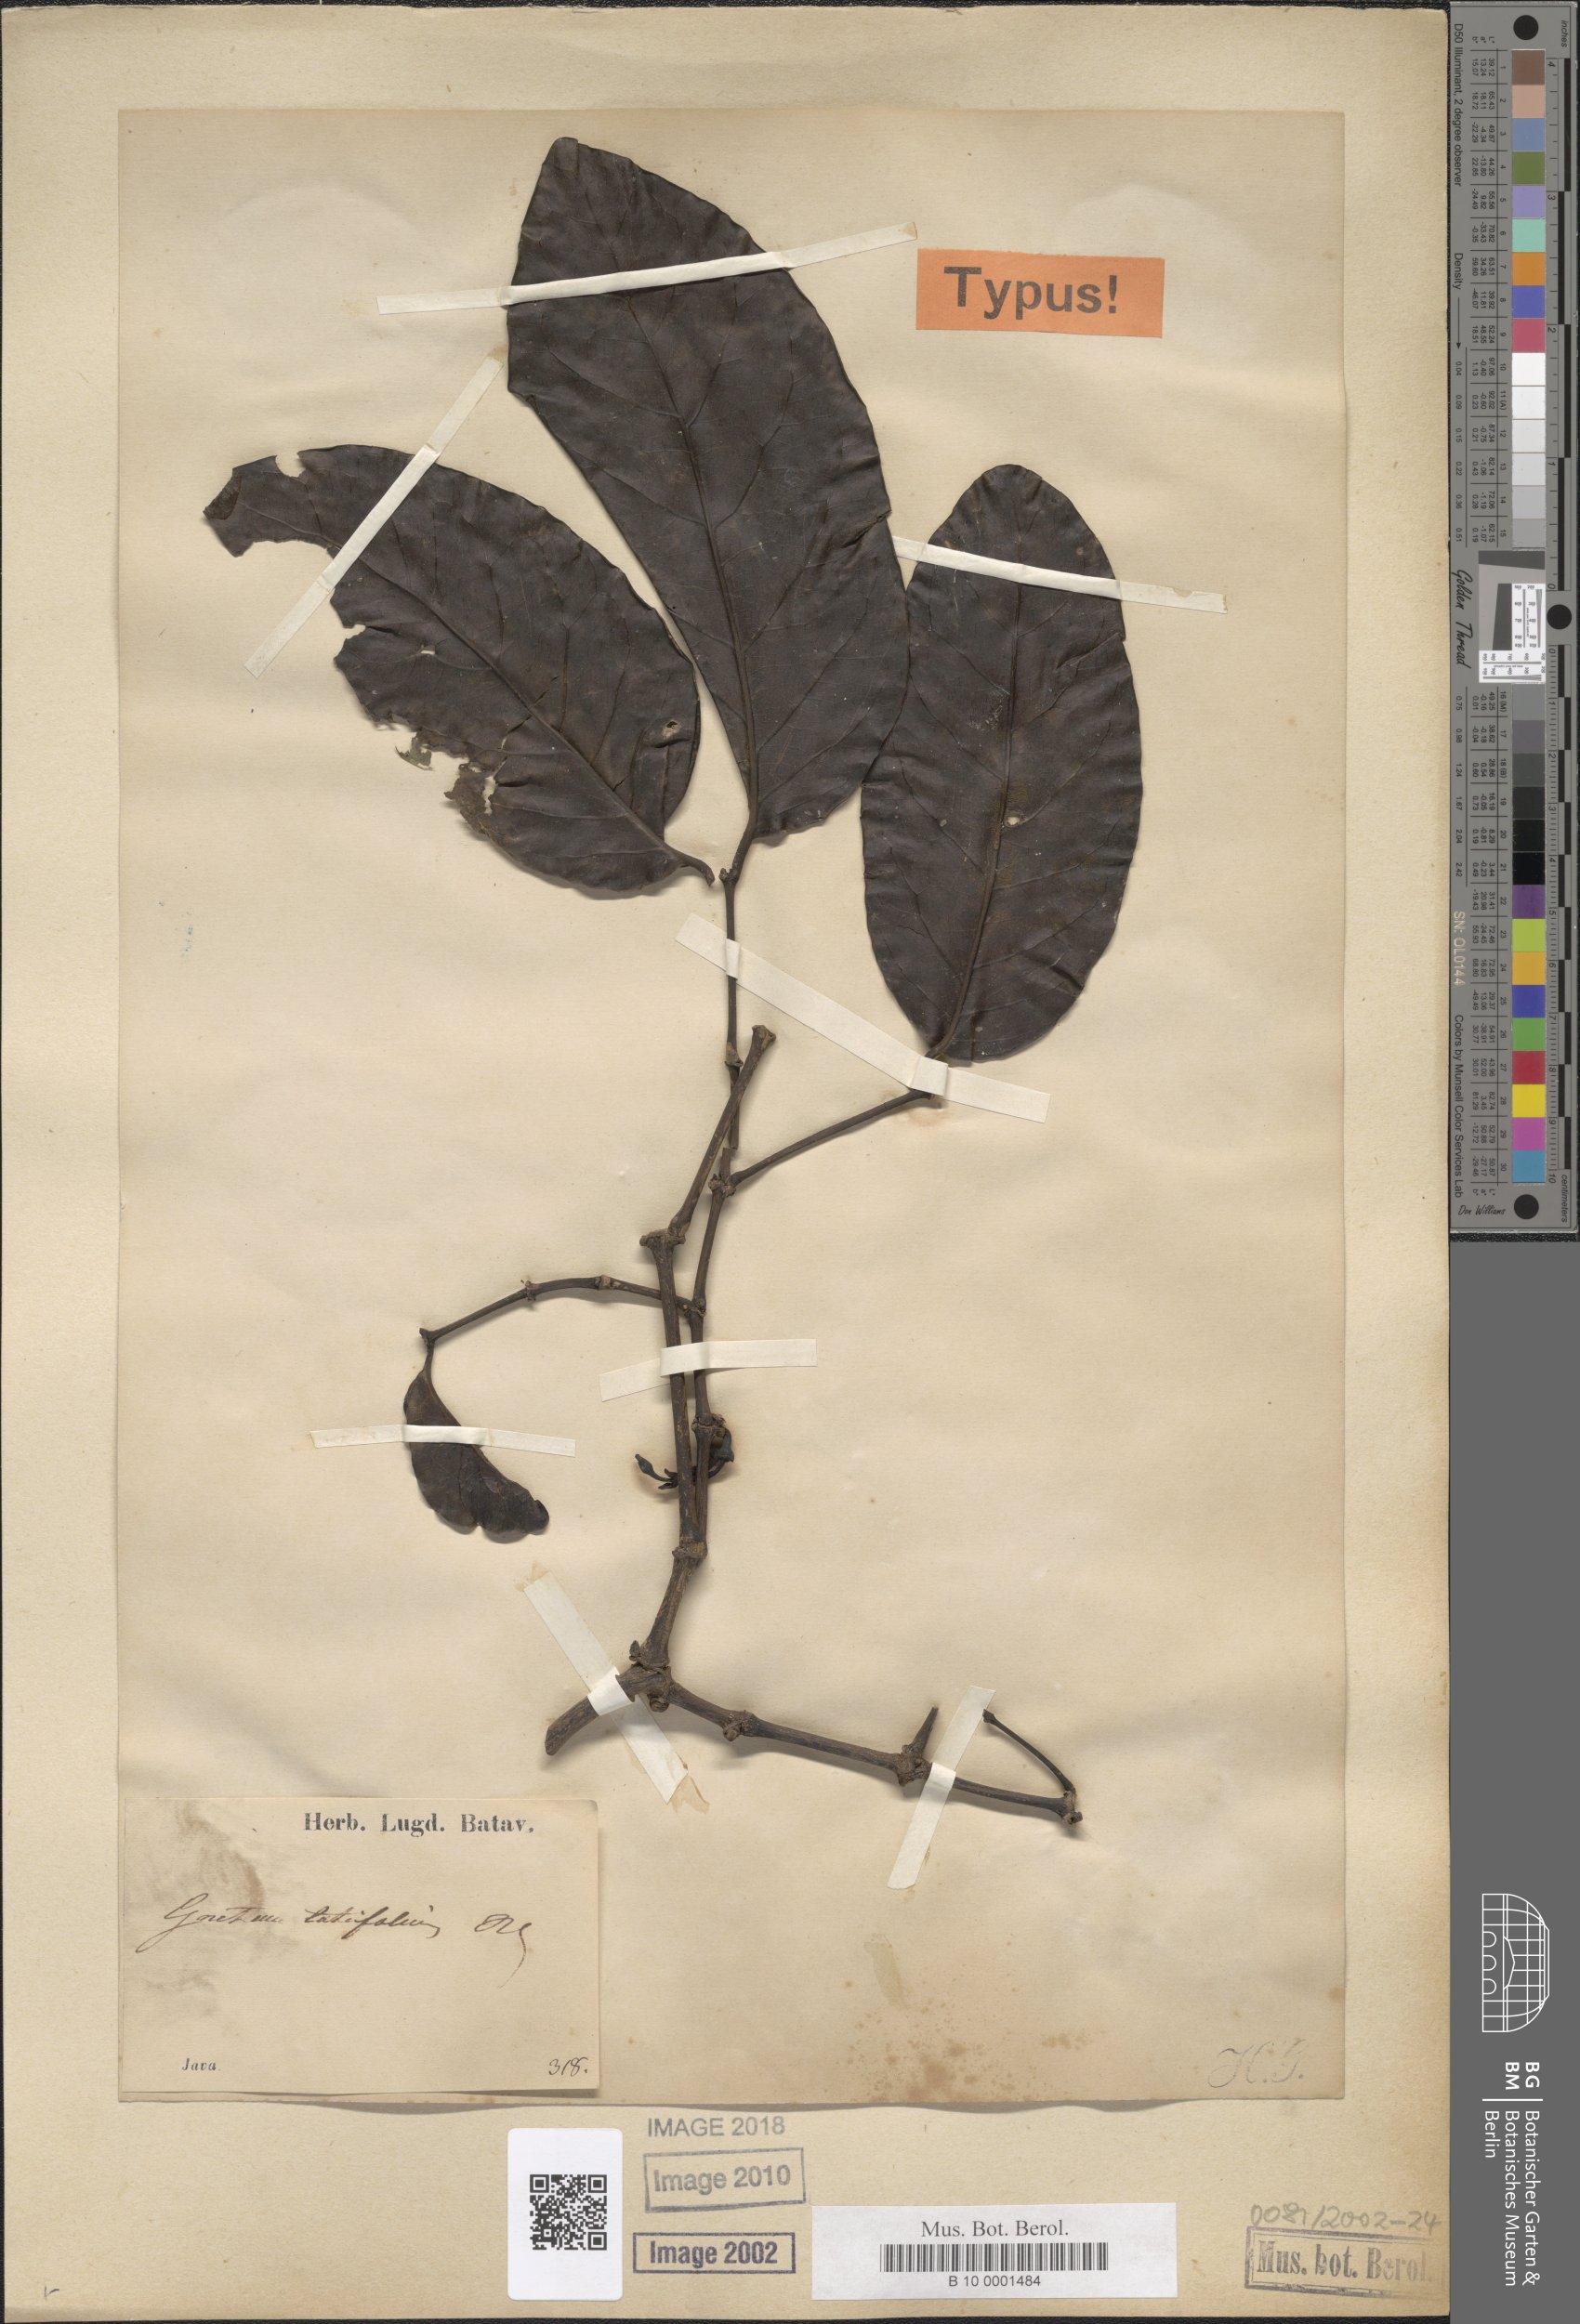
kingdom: Plantae
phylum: Tracheophyta
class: Gnetopsida
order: Gnetales
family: Gnetaceae
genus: Gnetum
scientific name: Gnetum latifolium
